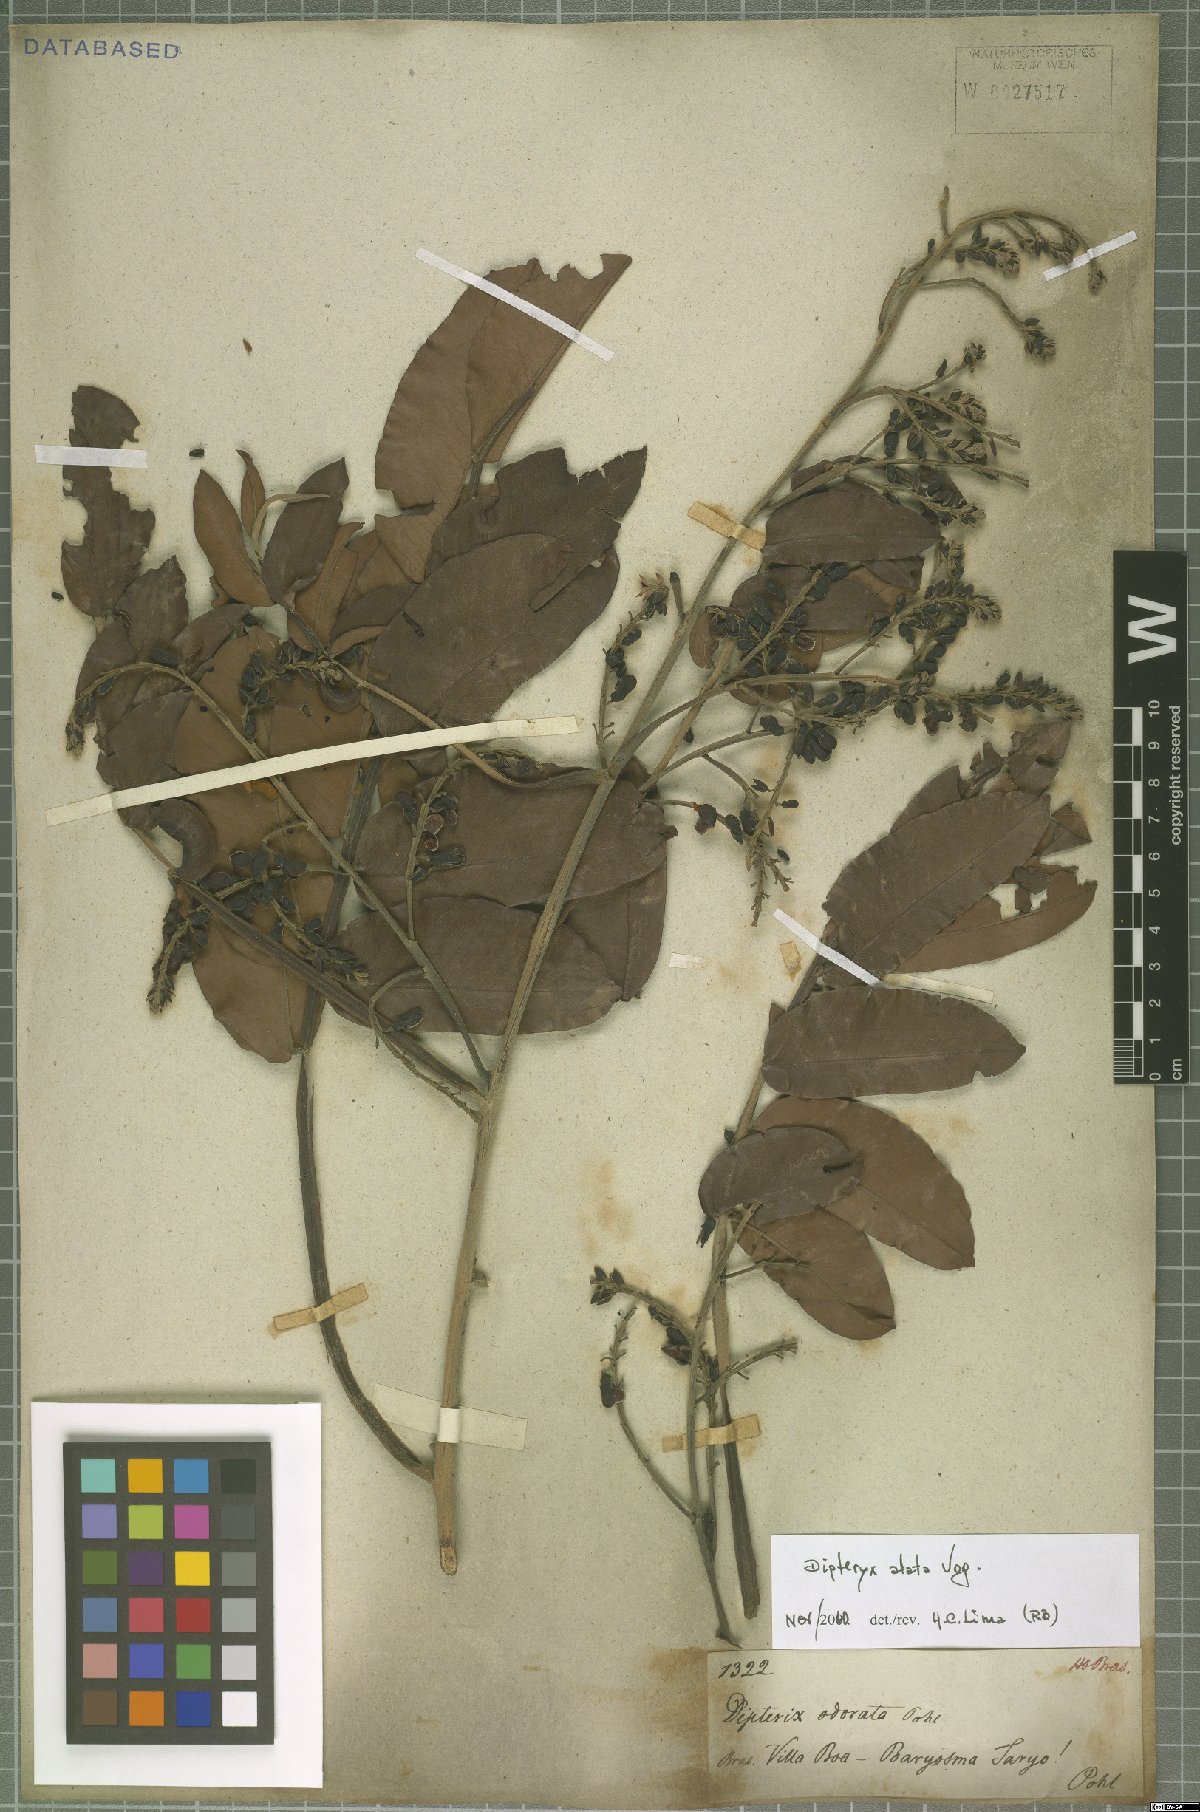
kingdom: Plantae
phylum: Tracheophyta
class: Magnoliopsida
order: Fabales
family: Fabaceae
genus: Dipteryx
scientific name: Dipteryx alata
